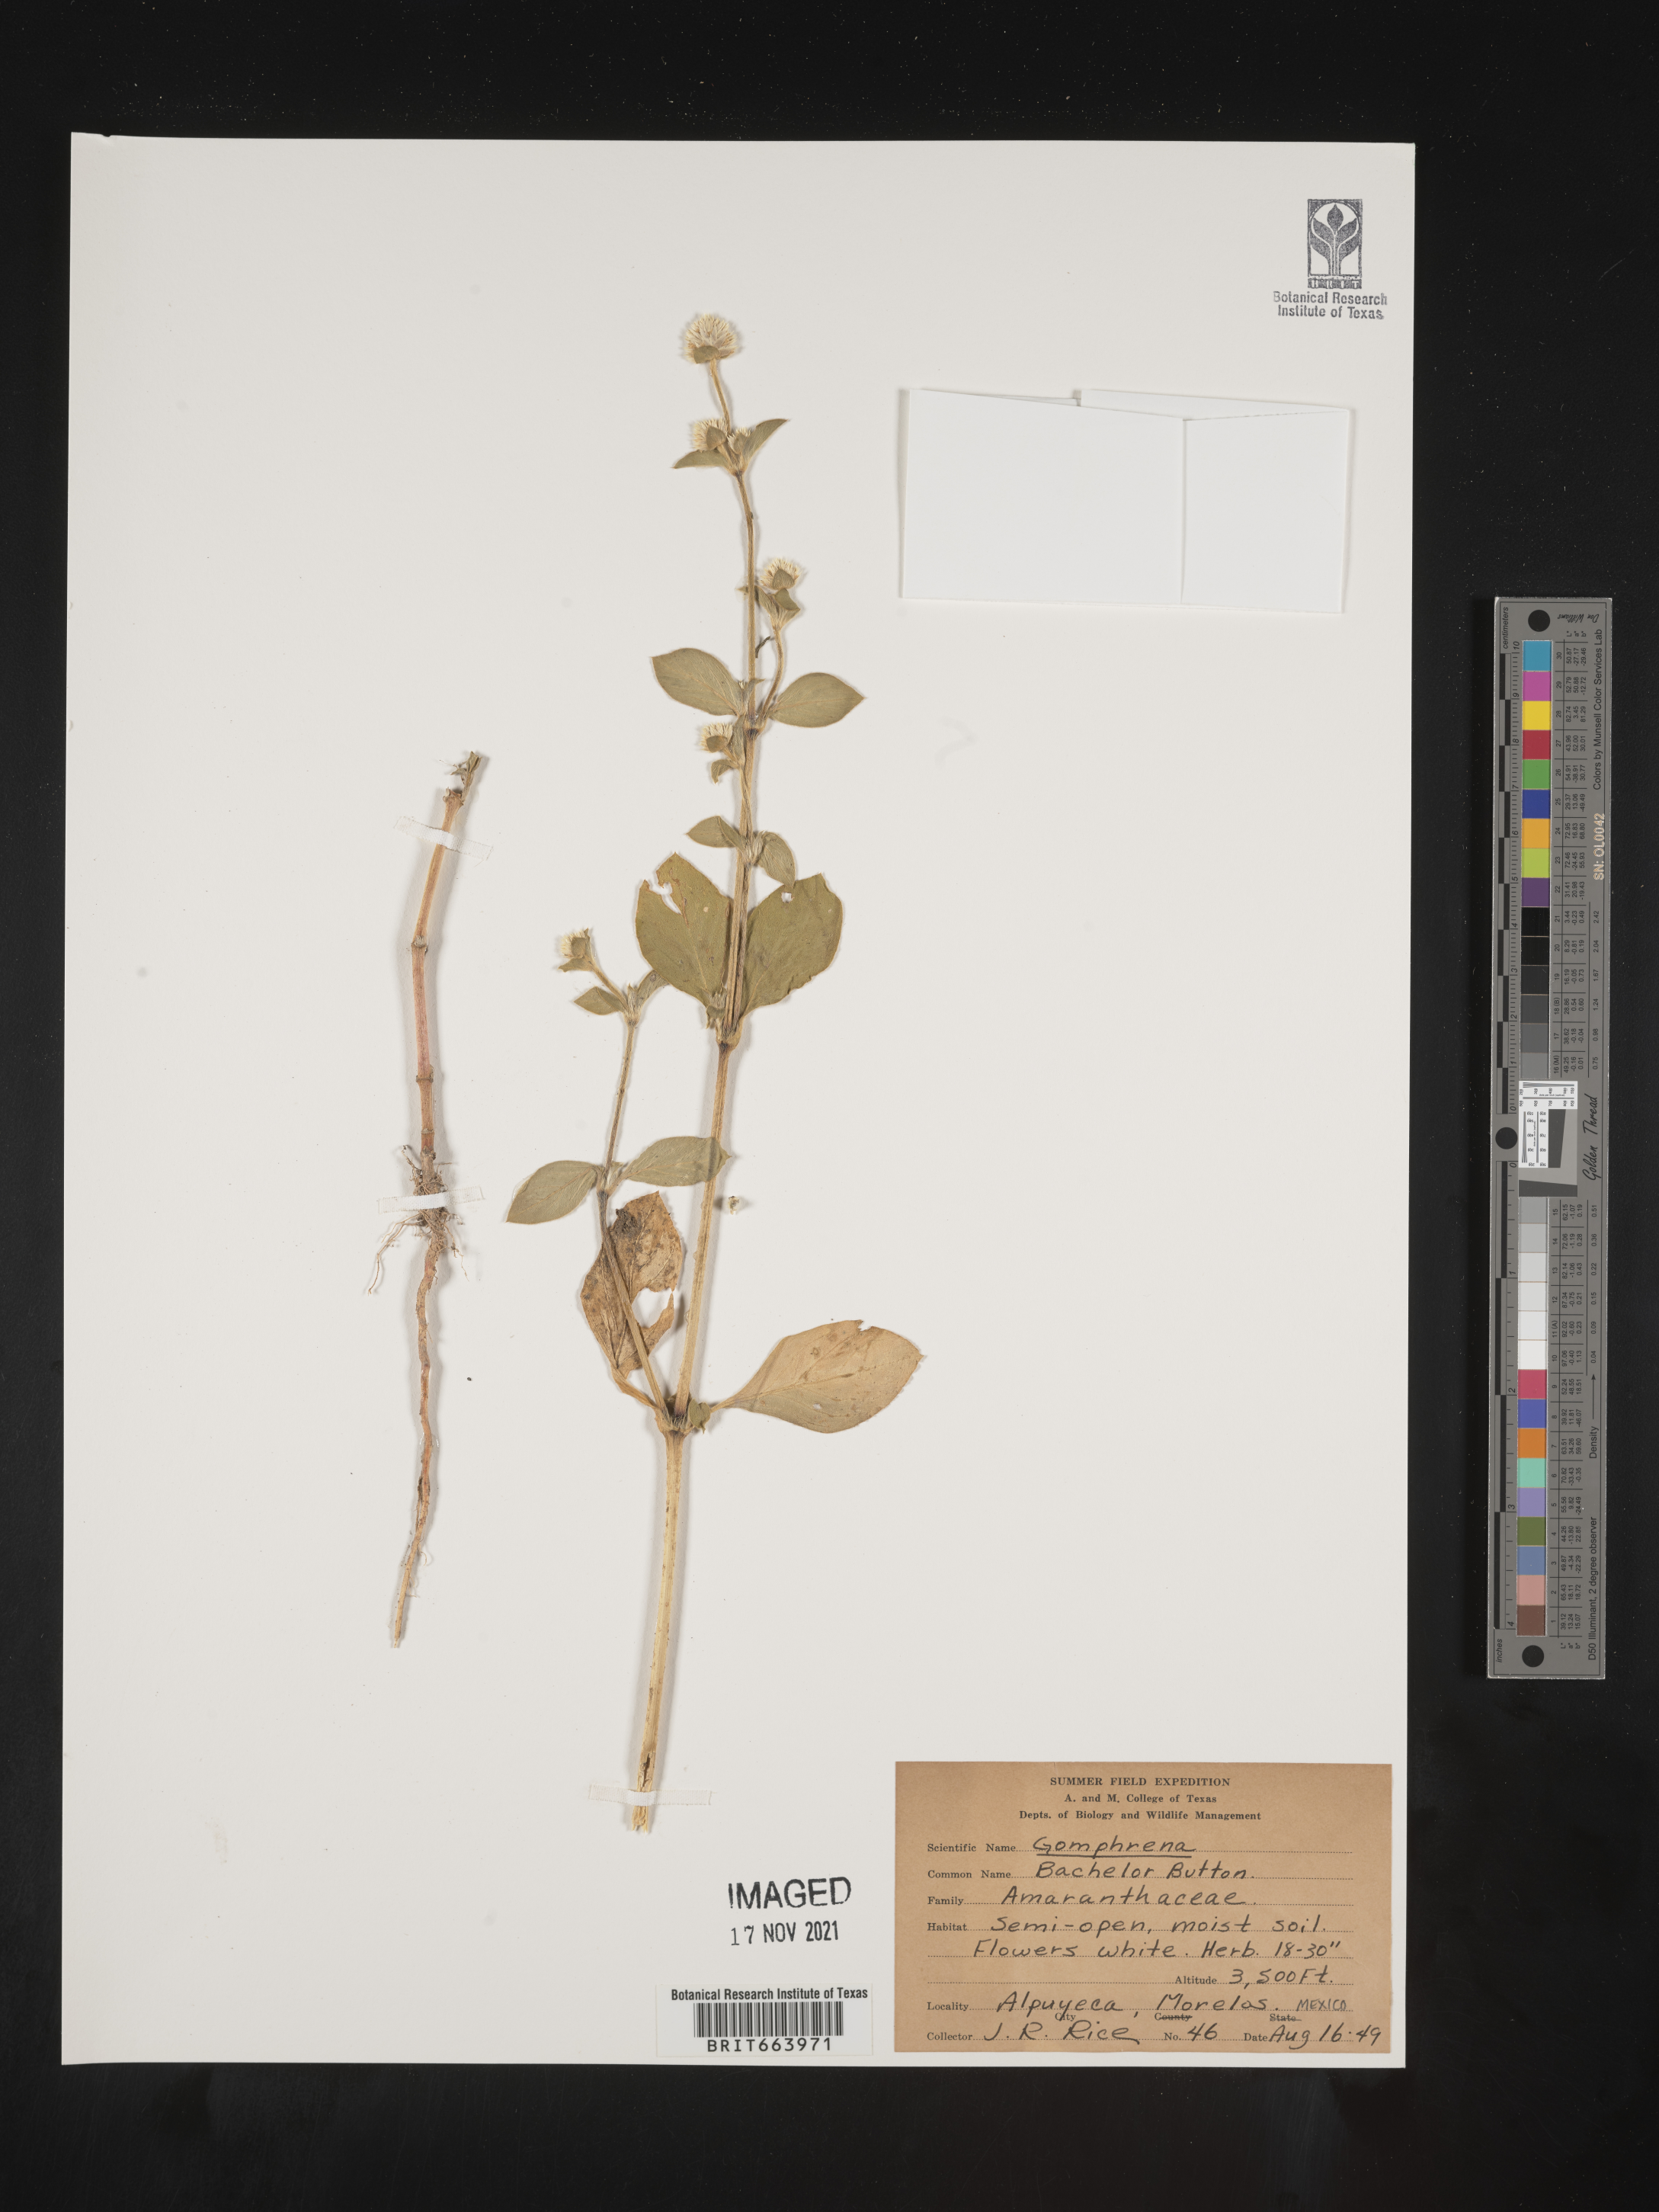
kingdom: Plantae
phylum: Tracheophyta
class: Magnoliopsida
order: Caryophyllales
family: Amaranthaceae
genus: Gomphrena
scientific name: Gomphrena
